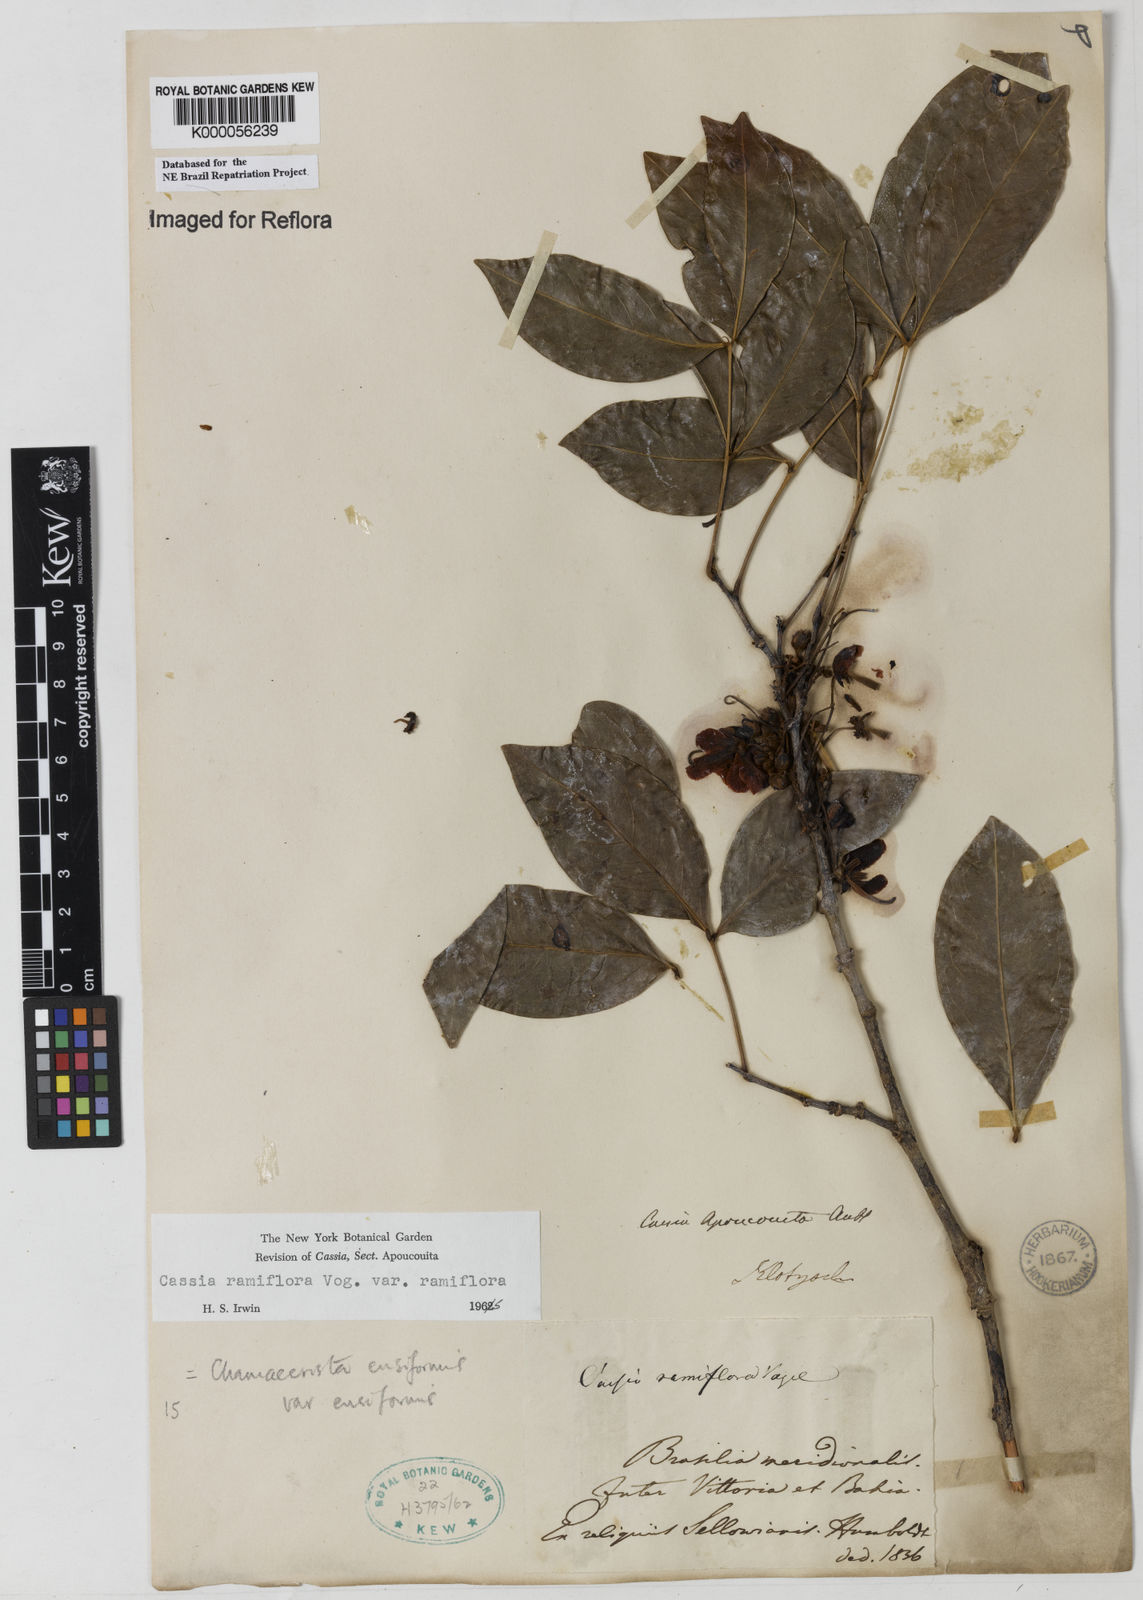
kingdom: Plantae
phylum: Tracheophyta
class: Magnoliopsida
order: Fabales
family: Fabaceae
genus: Chamaecrista
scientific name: Chamaecrista ensiformis
